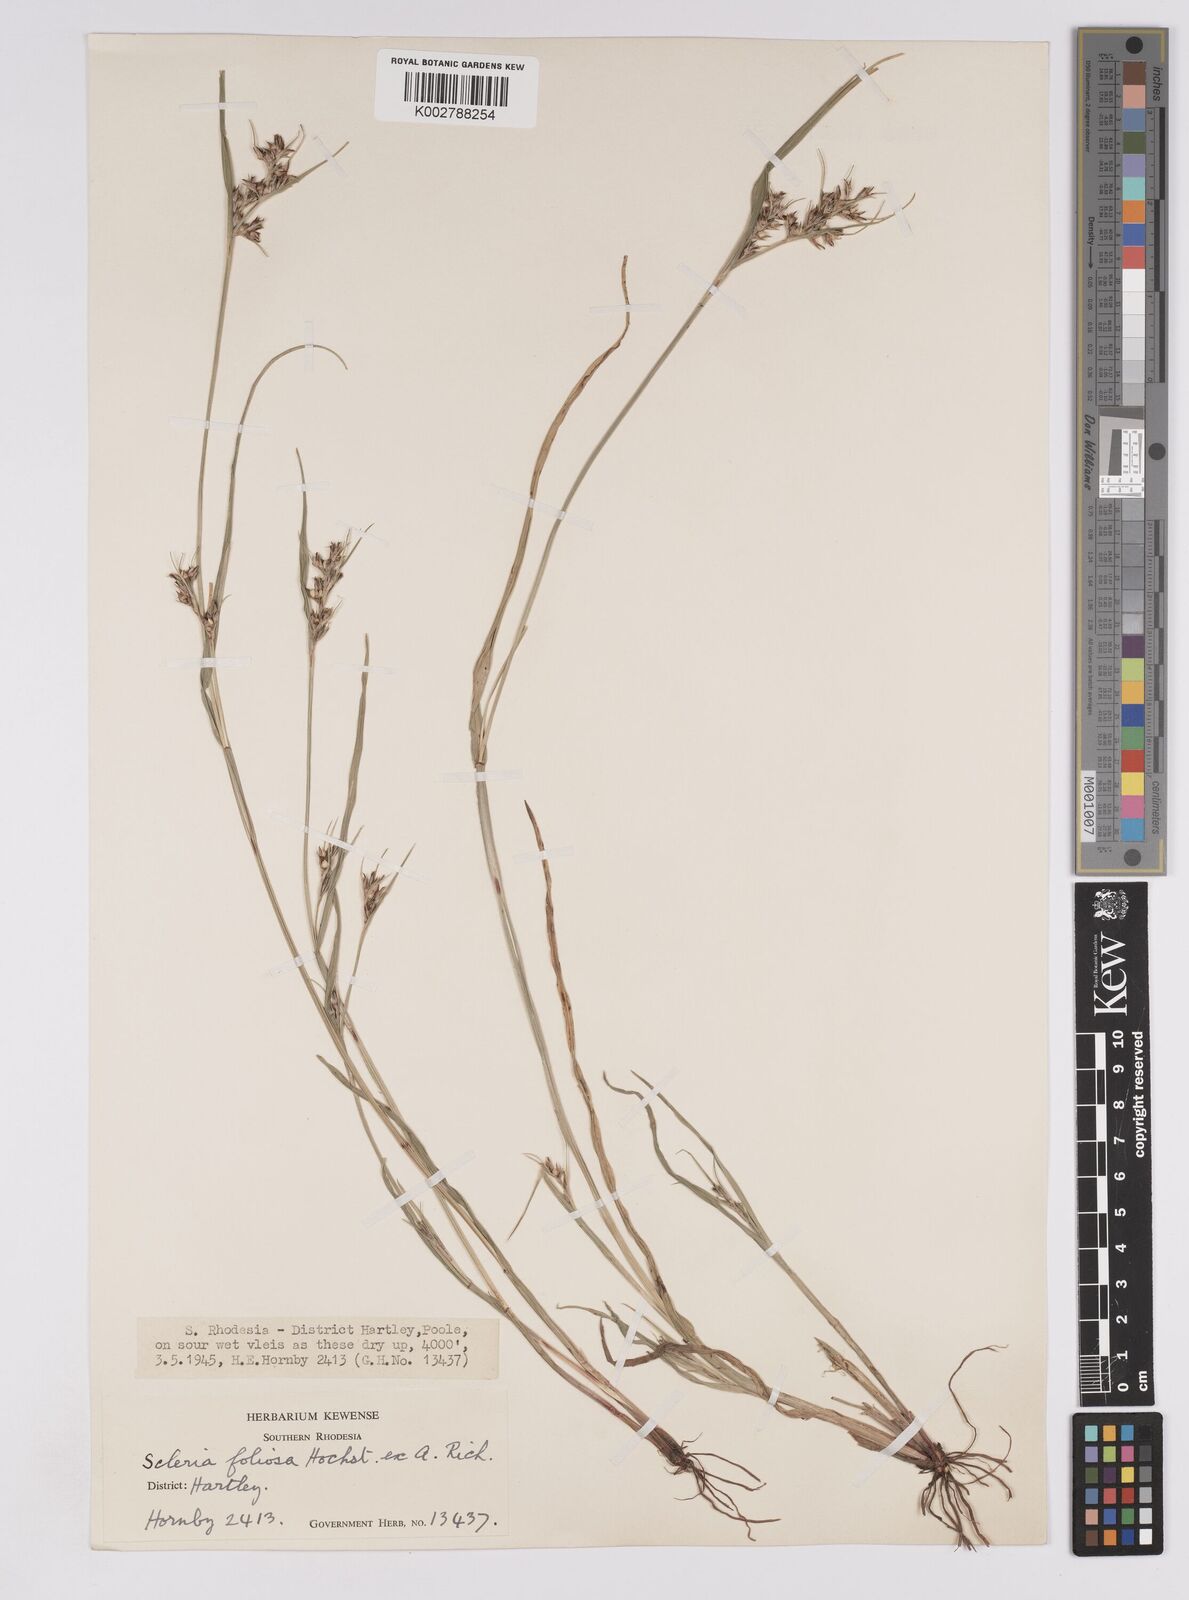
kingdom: Plantae
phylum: Tracheophyta
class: Liliopsida
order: Poales
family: Cyperaceae
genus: Scleria
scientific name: Scleria foliosa
